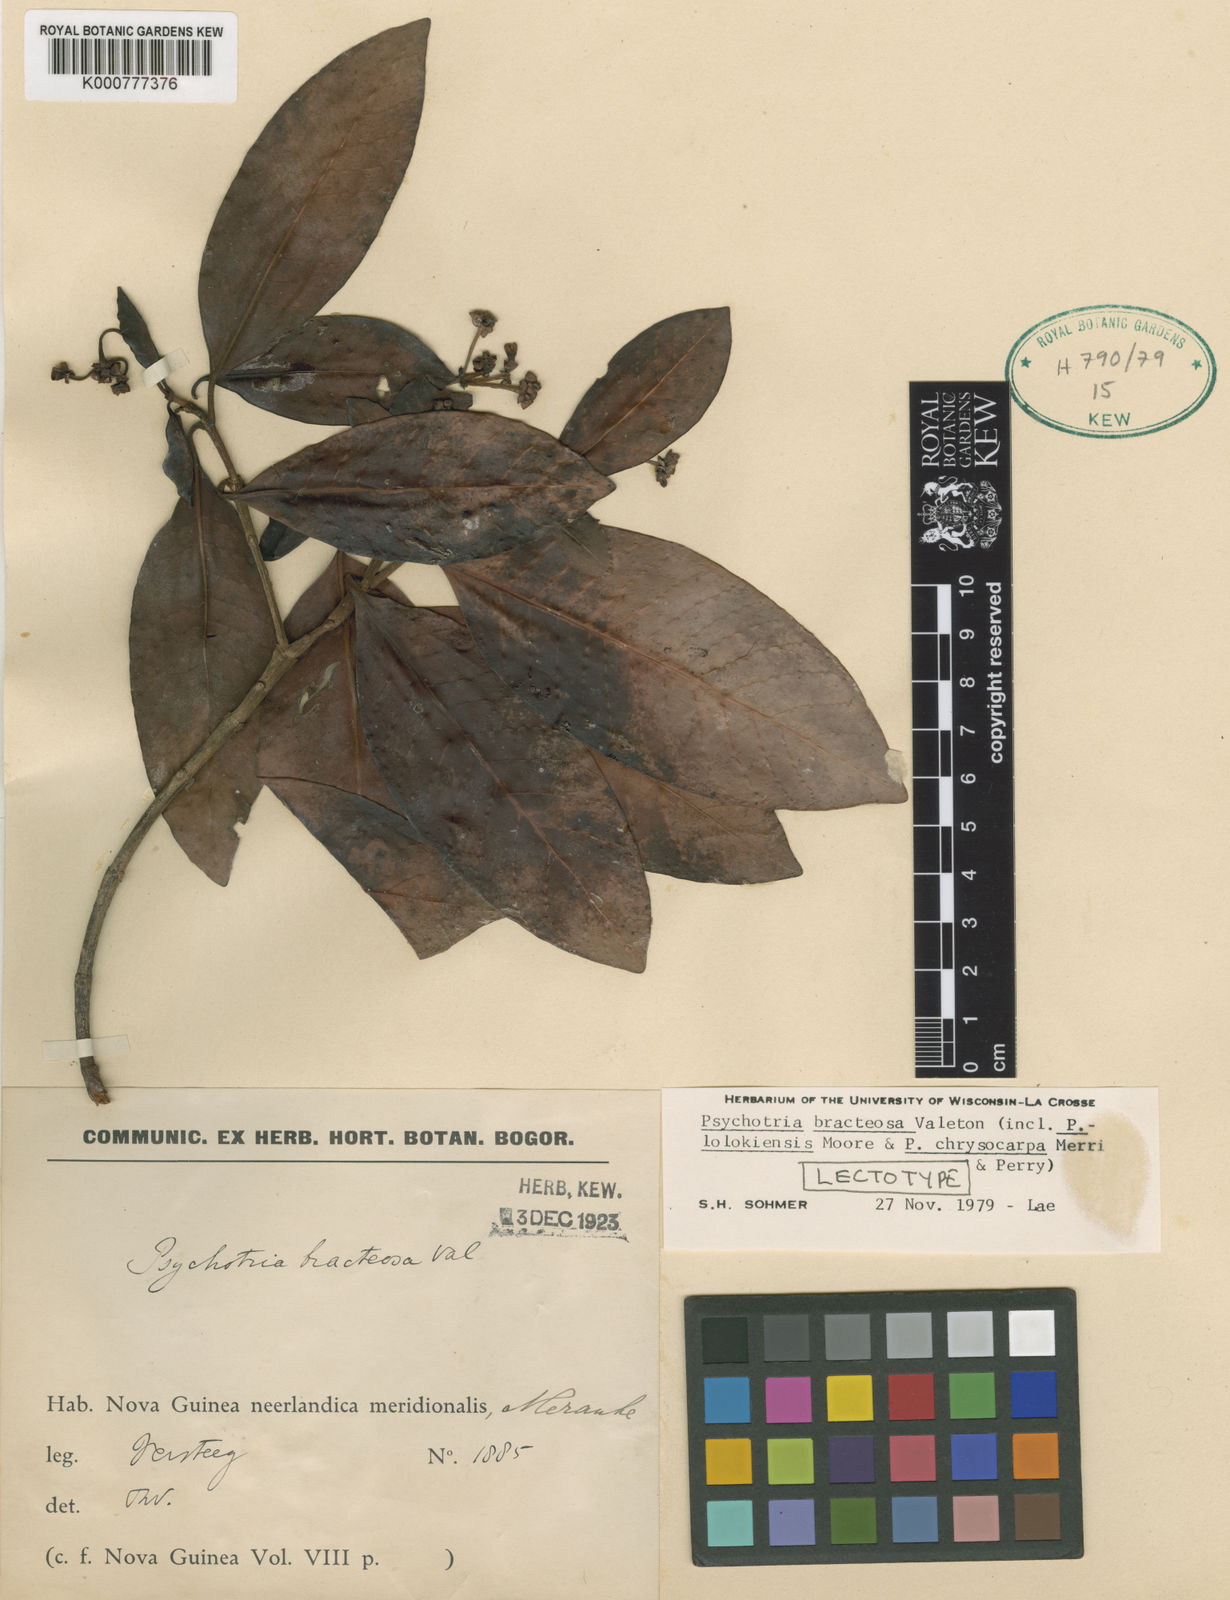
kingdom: Plantae
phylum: Tracheophyta
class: Magnoliopsida
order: Gentianales
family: Rubiaceae
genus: Psychotria
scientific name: Psychotria lolokiensis
